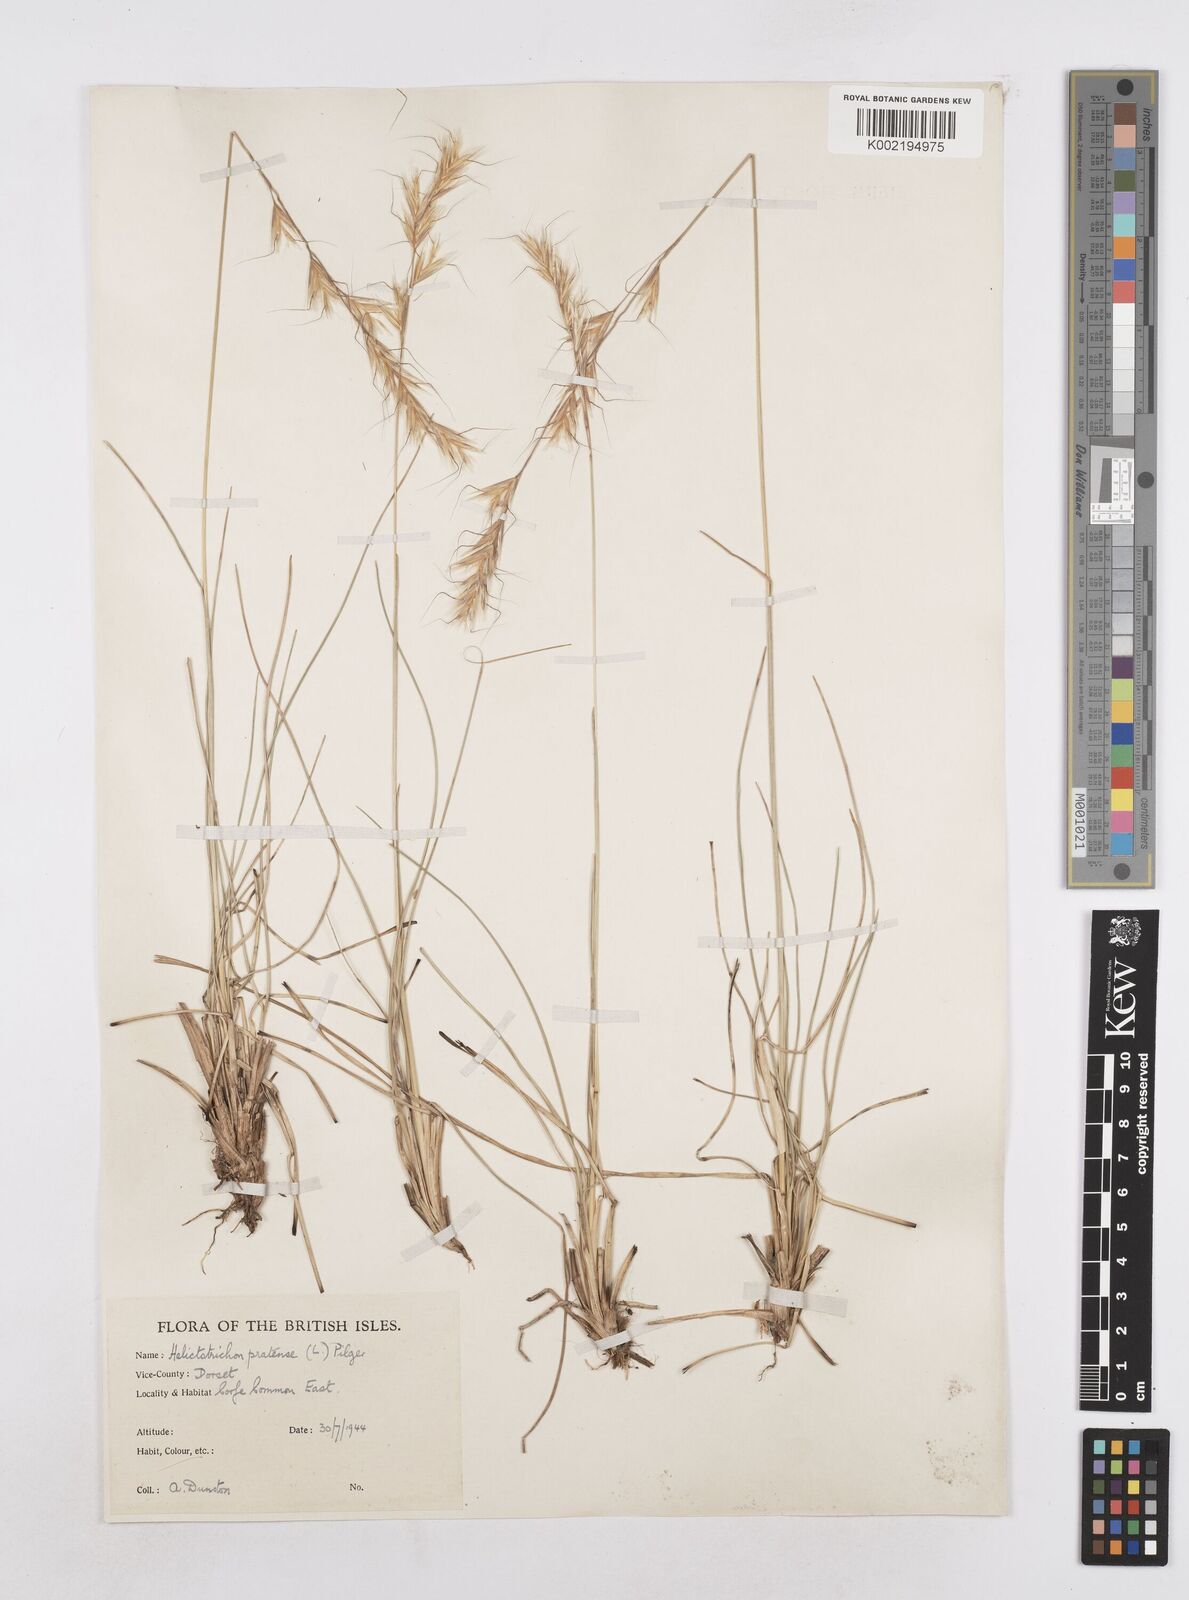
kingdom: Plantae
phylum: Tracheophyta
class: Liliopsida
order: Poales
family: Poaceae
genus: Helictochloa
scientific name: Helictochloa pratensis
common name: Meadow oat grass
